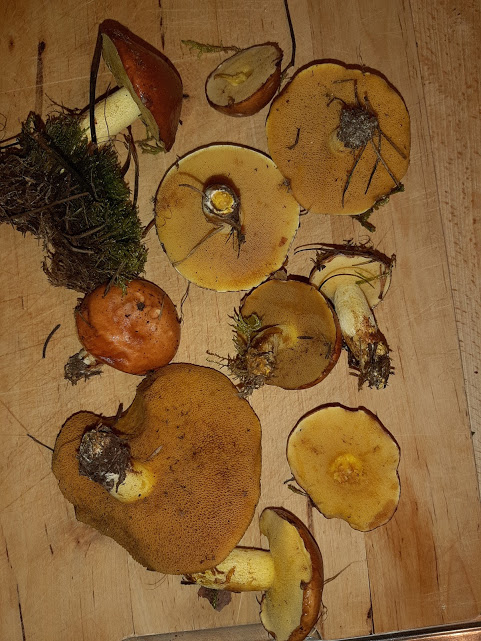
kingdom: Fungi
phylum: Basidiomycota
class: Agaricomycetes
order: Boletales
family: Suillaceae
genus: Suillus
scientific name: Suillus granulatus
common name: kornet slimrørhat
